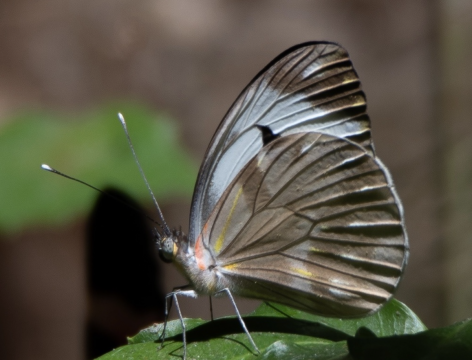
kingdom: Animalia
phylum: Arthropoda
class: Insecta
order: Lepidoptera
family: Pieridae
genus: Pieriballia
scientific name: Pieriballia viardi
